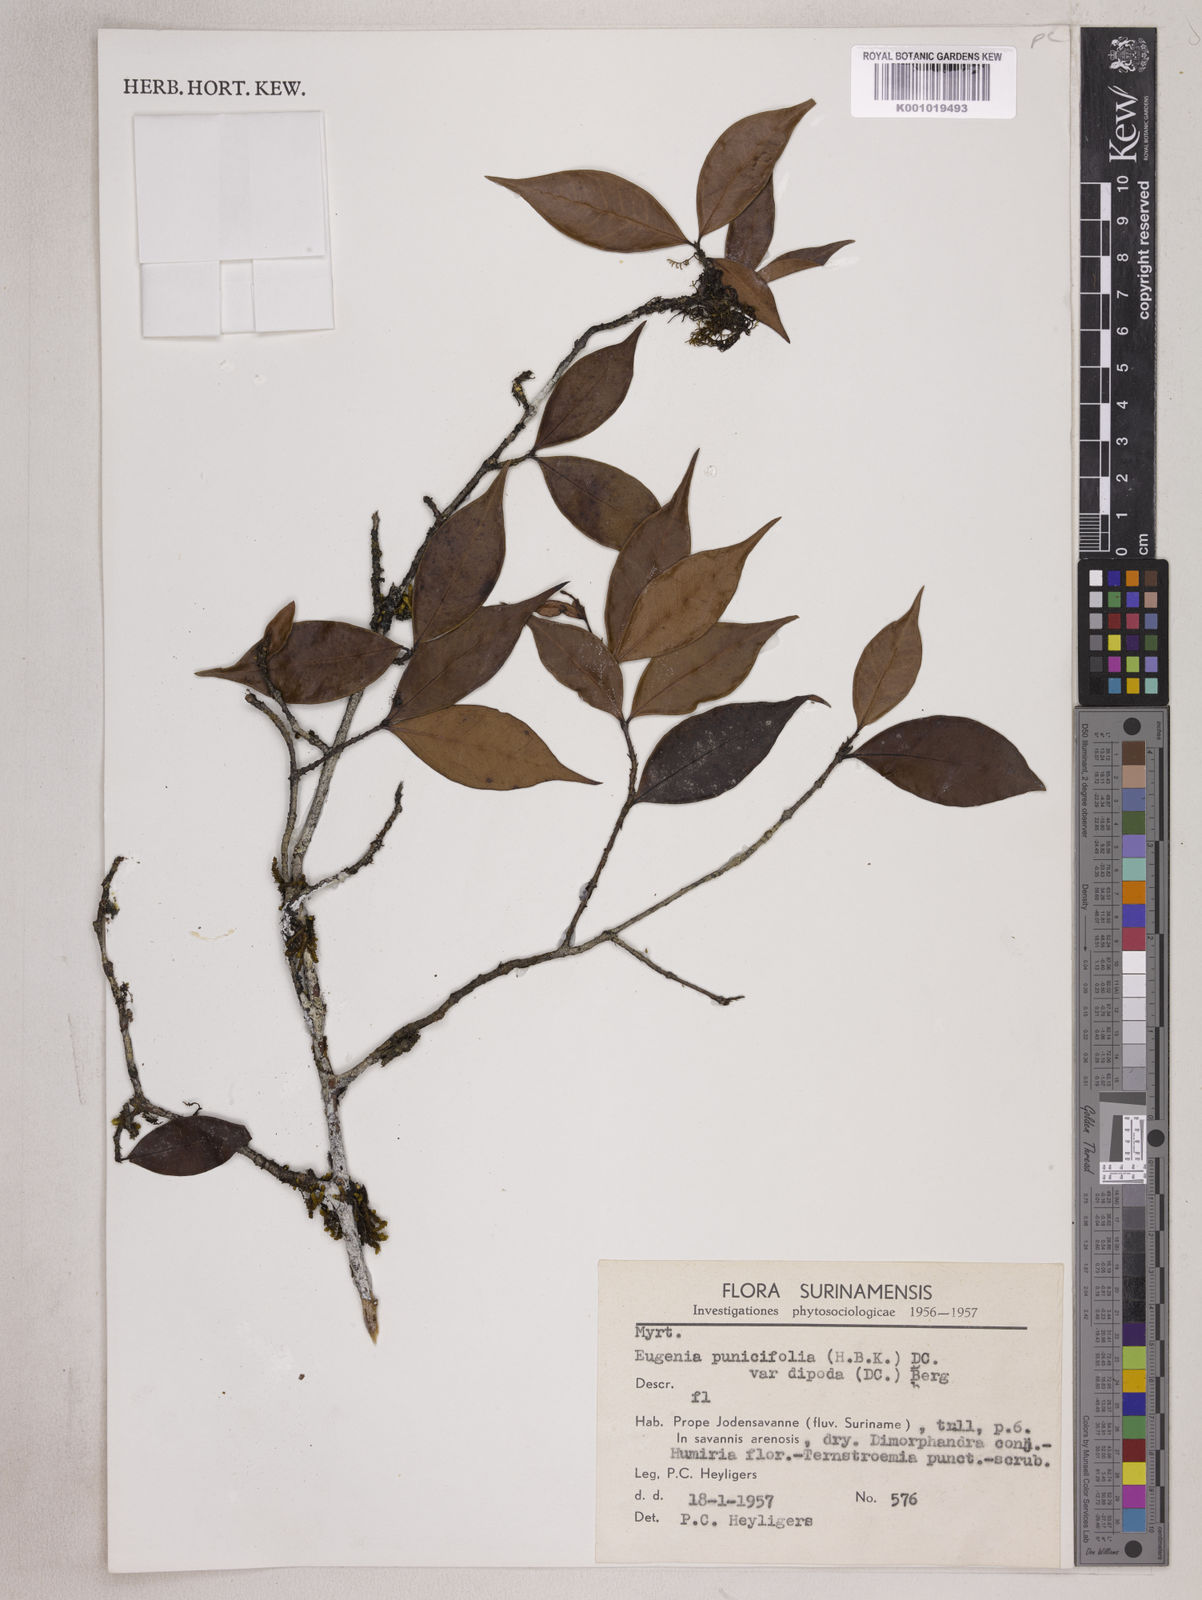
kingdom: Plantae
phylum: Tracheophyta
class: Magnoliopsida
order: Myrtales
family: Myrtaceae
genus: Eugenia
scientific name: Eugenia punicifolia
